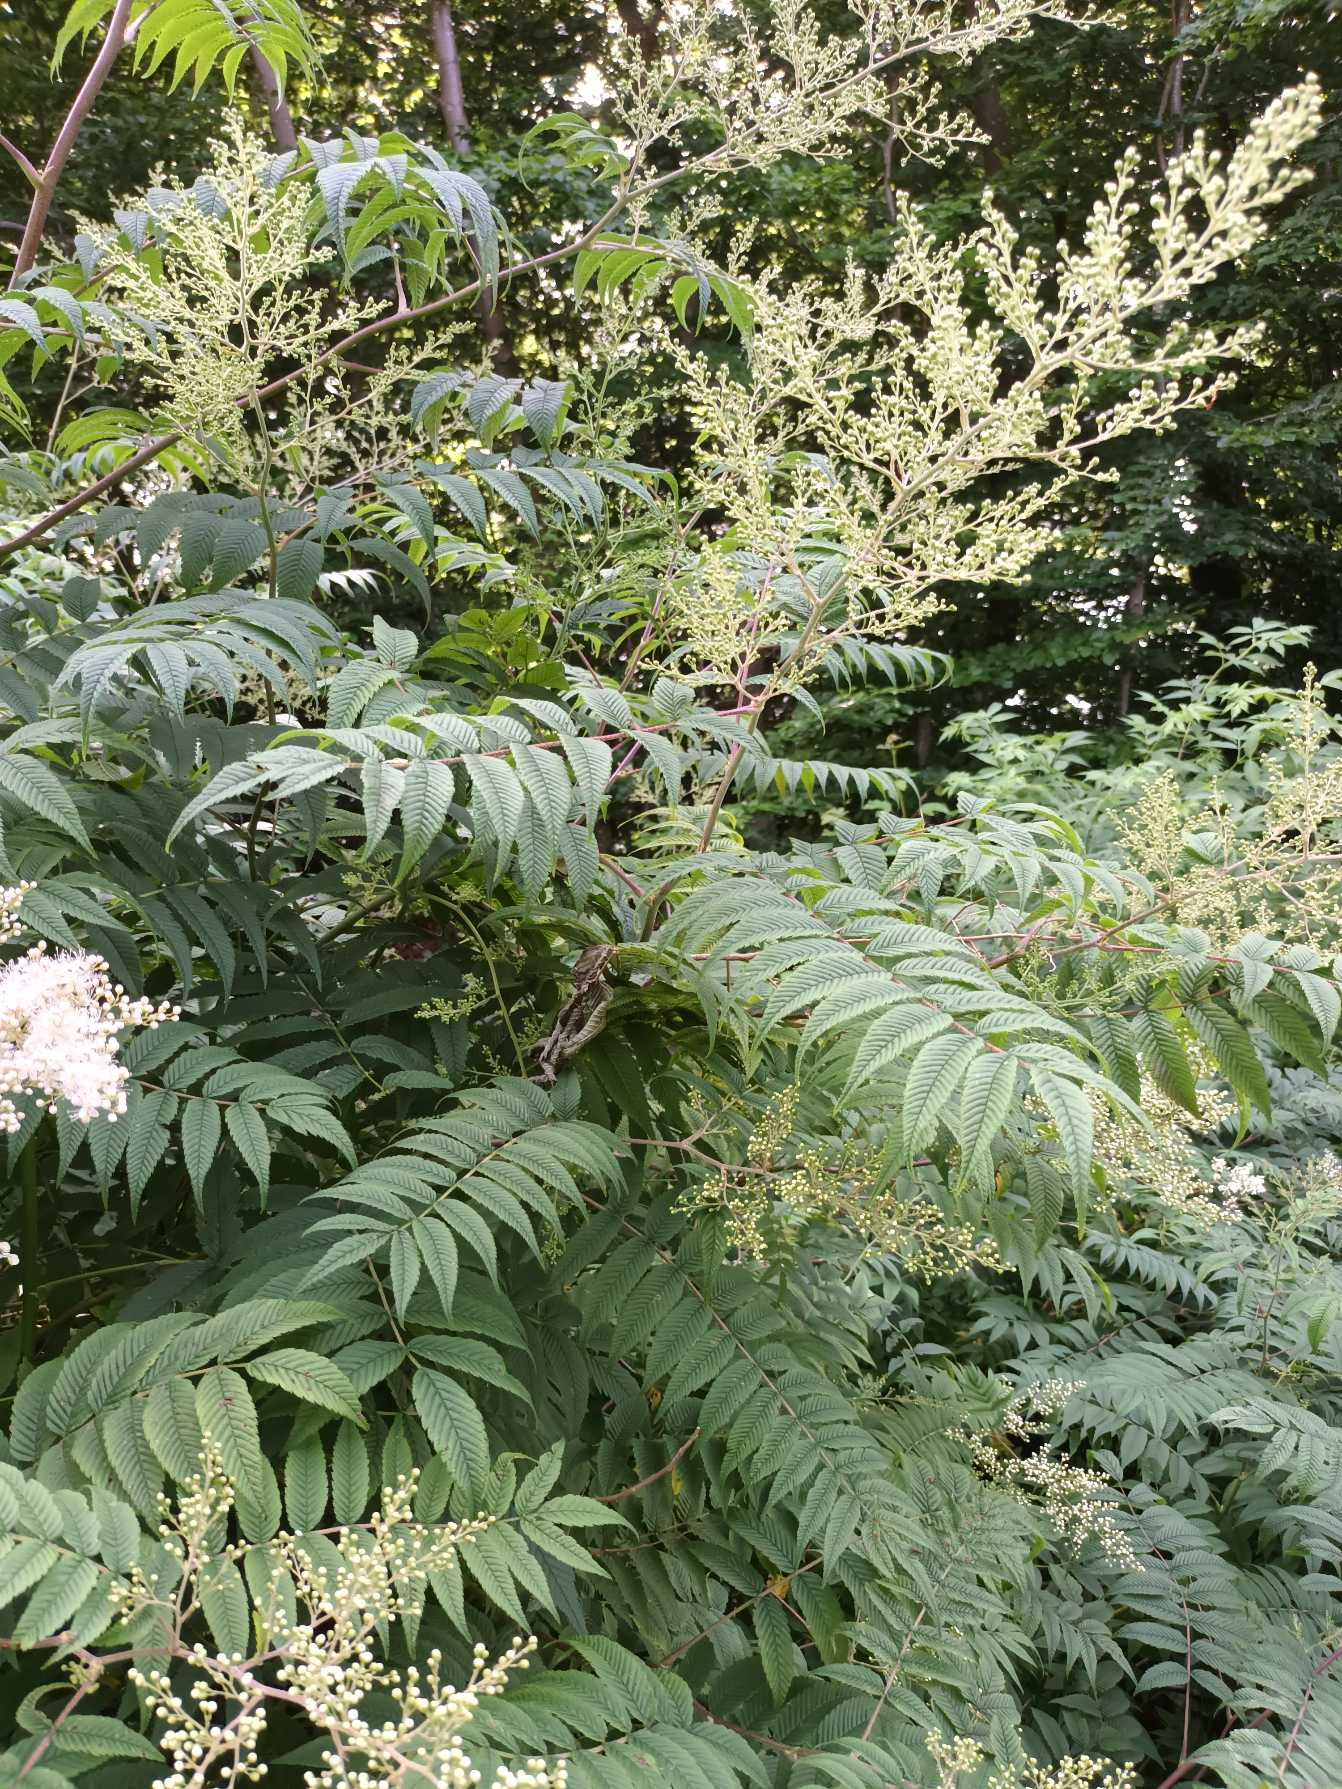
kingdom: Plantae
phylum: Tracheophyta
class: Magnoliopsida
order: Rosales
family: Rosaceae
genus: Sorbaria
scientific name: Sorbaria kirilowii
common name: Kinesisk tusindtop
